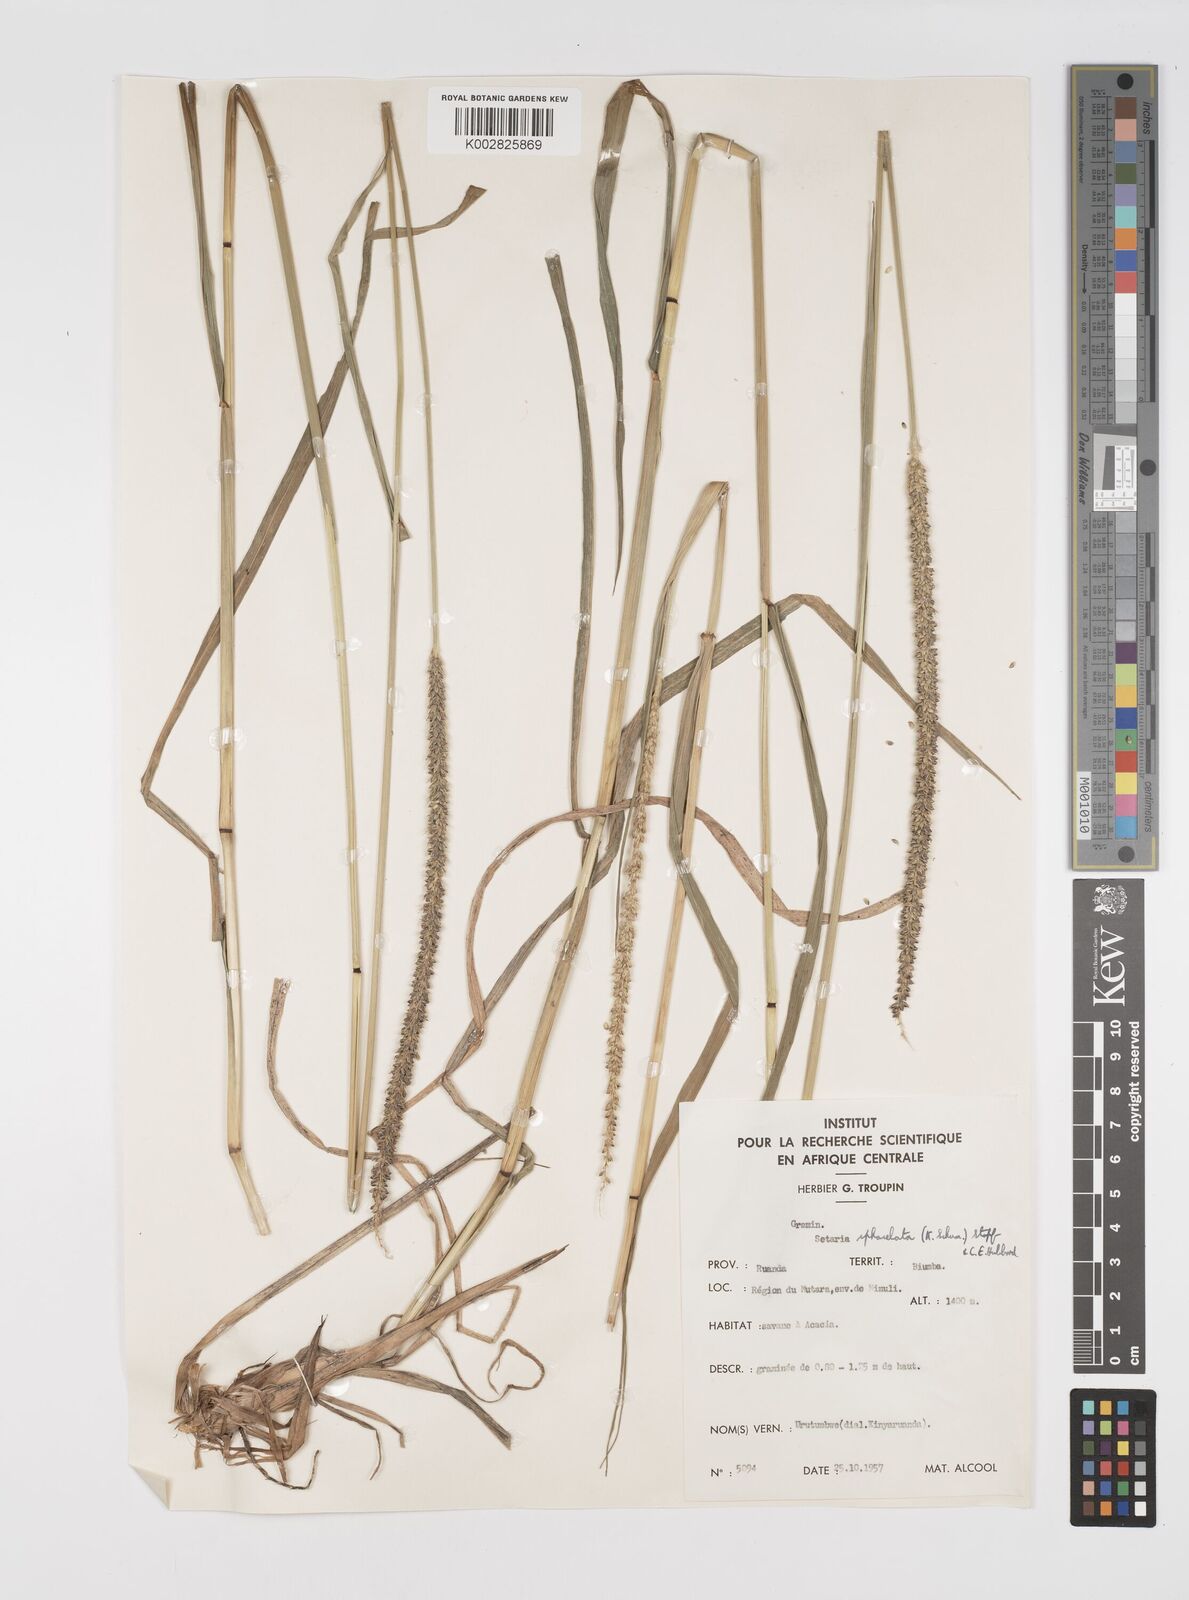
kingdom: Plantae
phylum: Tracheophyta
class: Liliopsida
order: Poales
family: Poaceae
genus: Setaria
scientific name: Setaria sphacelata
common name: African bristlegrass
